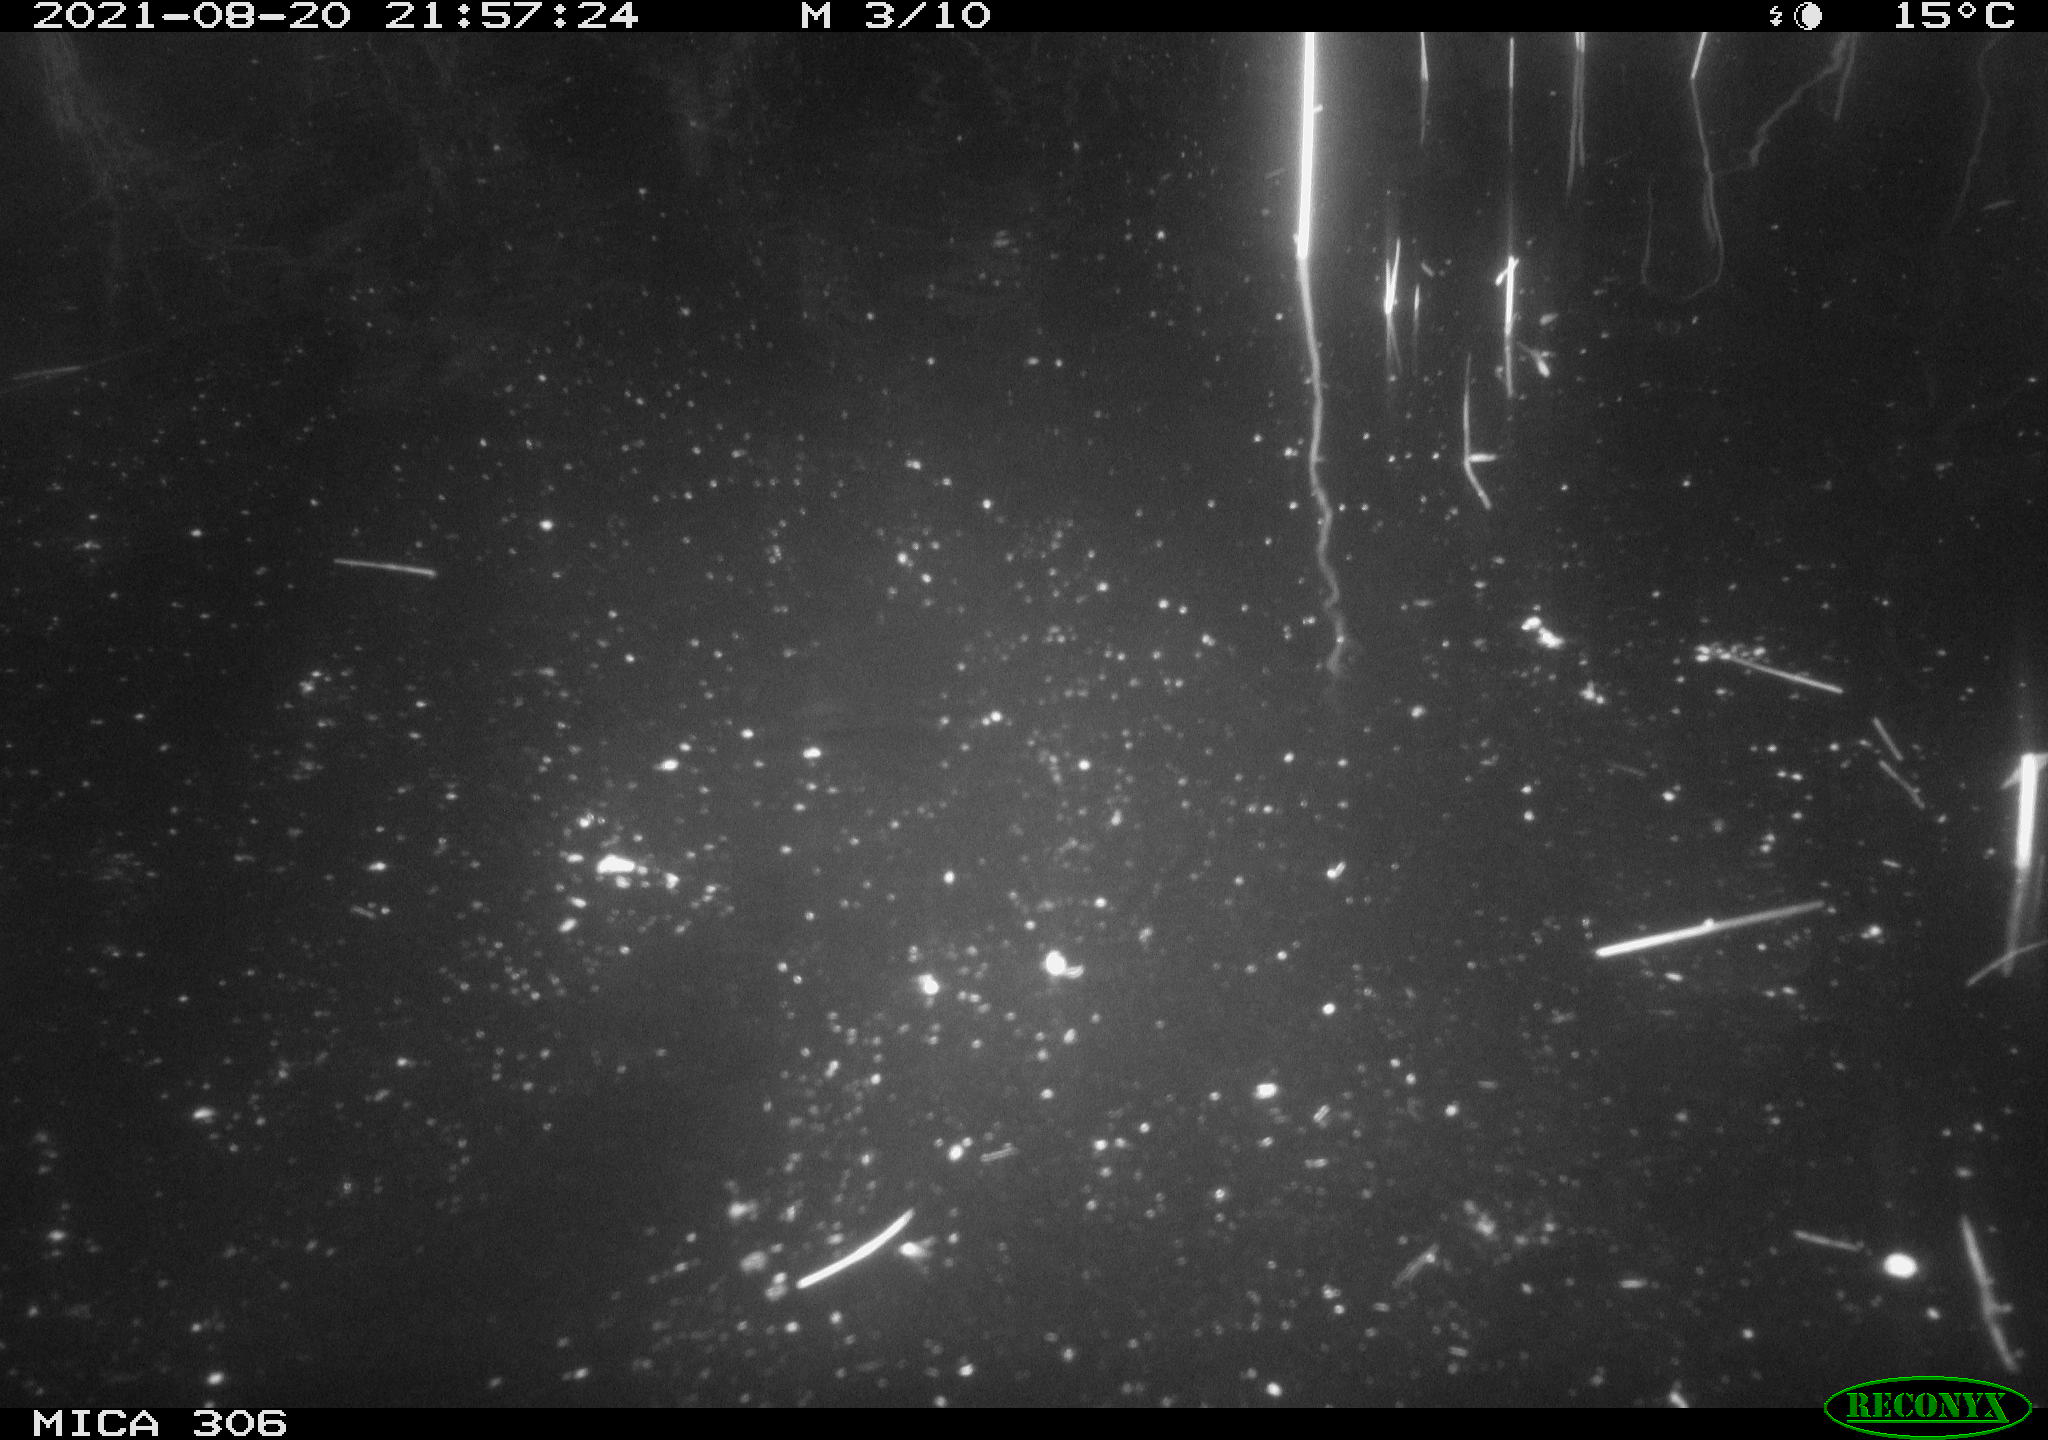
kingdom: Animalia
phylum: Chordata
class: Aves
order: Anseriformes
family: Anatidae
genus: Anas
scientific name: Anas platyrhynchos
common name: Mallard
